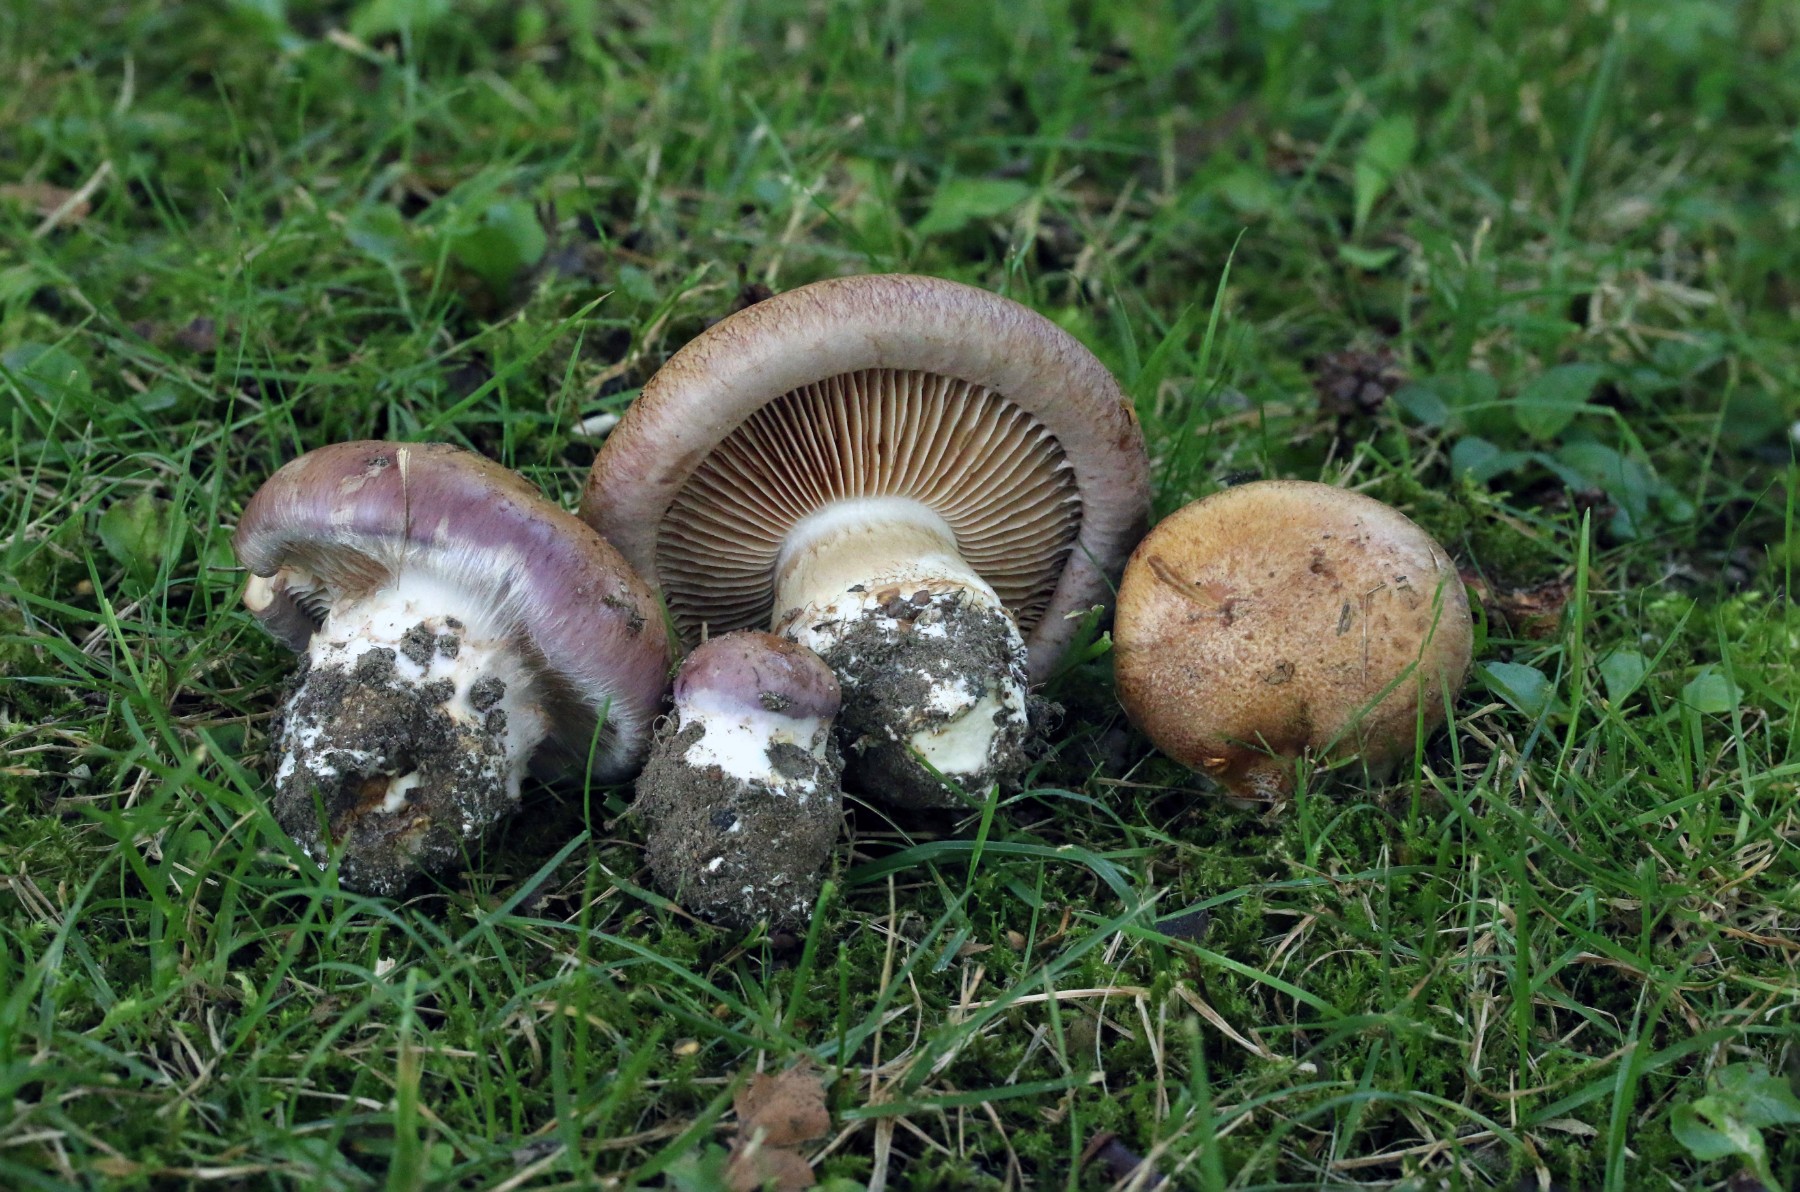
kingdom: Fungi
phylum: Basidiomycota
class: Agaricomycetes
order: Agaricales
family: Cortinariaceae
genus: Phlegmacium
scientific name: Phlegmacium balteatocumatile
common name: violettrådet slørhat
